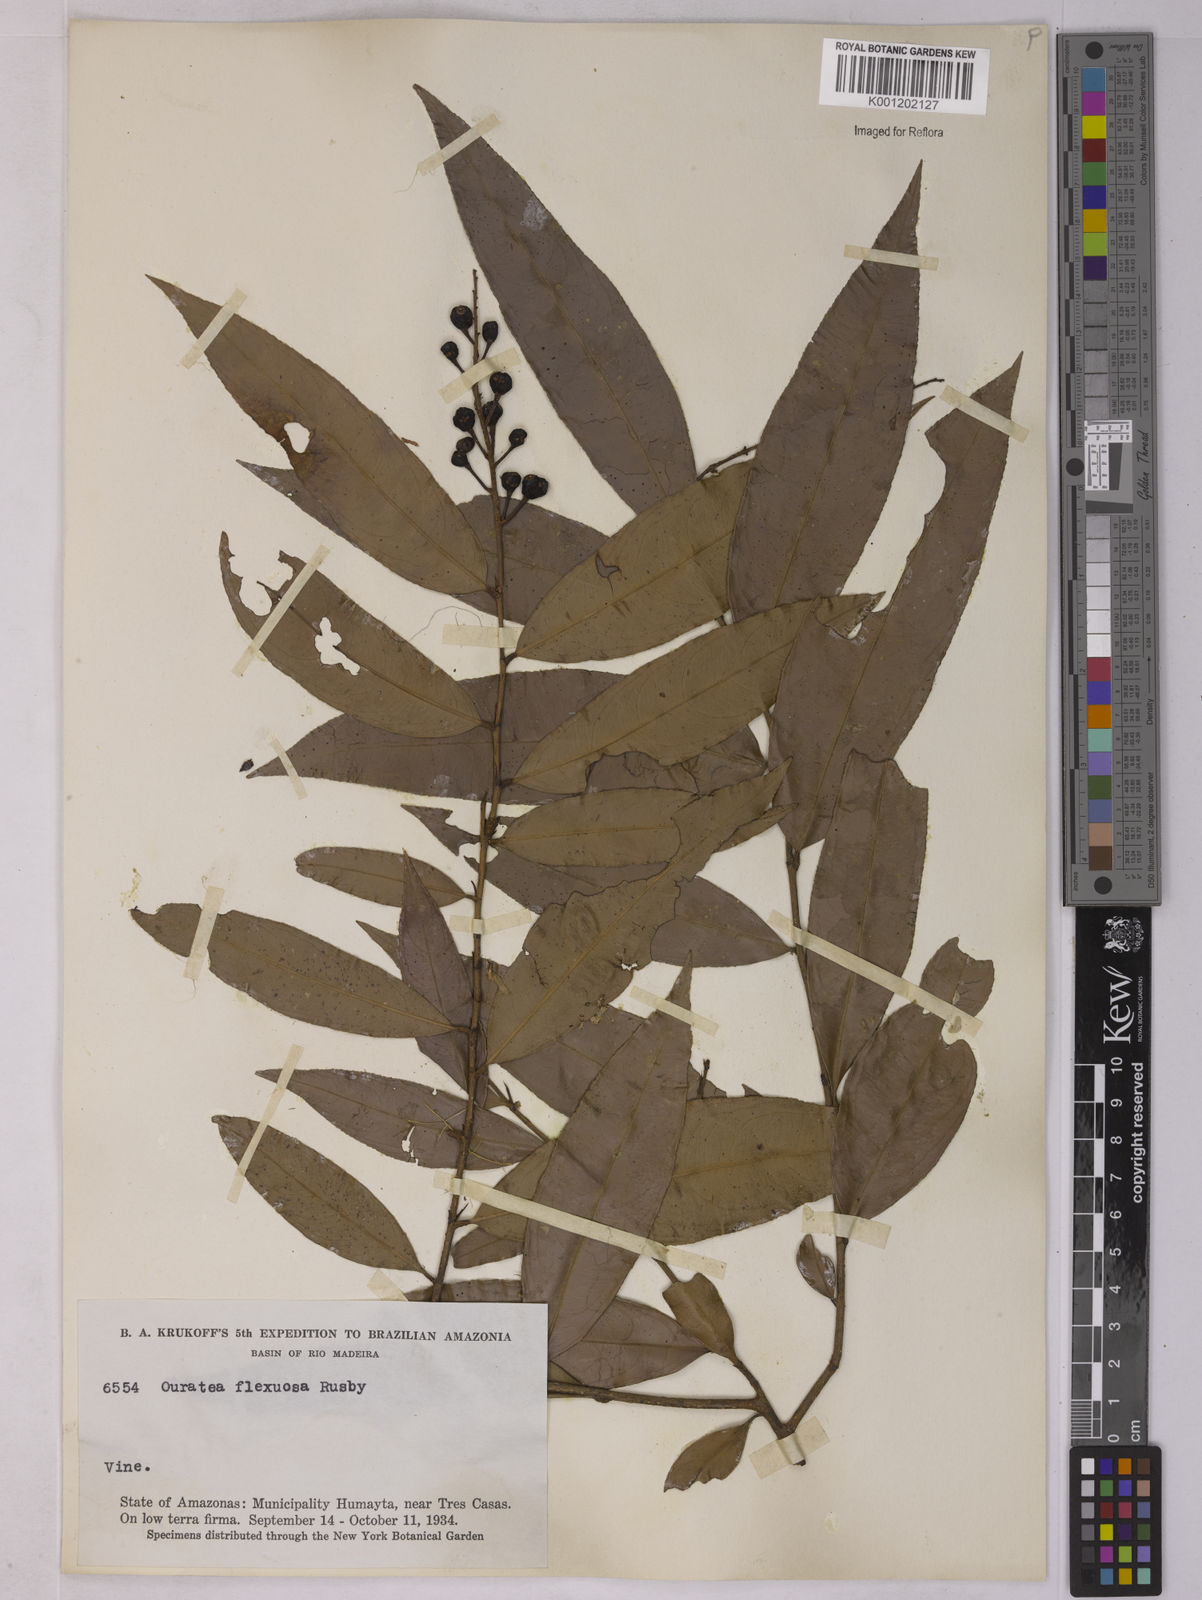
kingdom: Plantae
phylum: Tracheophyta
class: Magnoliopsida
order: Malpighiales
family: Ochnaceae
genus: Ouratea
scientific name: Ouratea flexuosa
